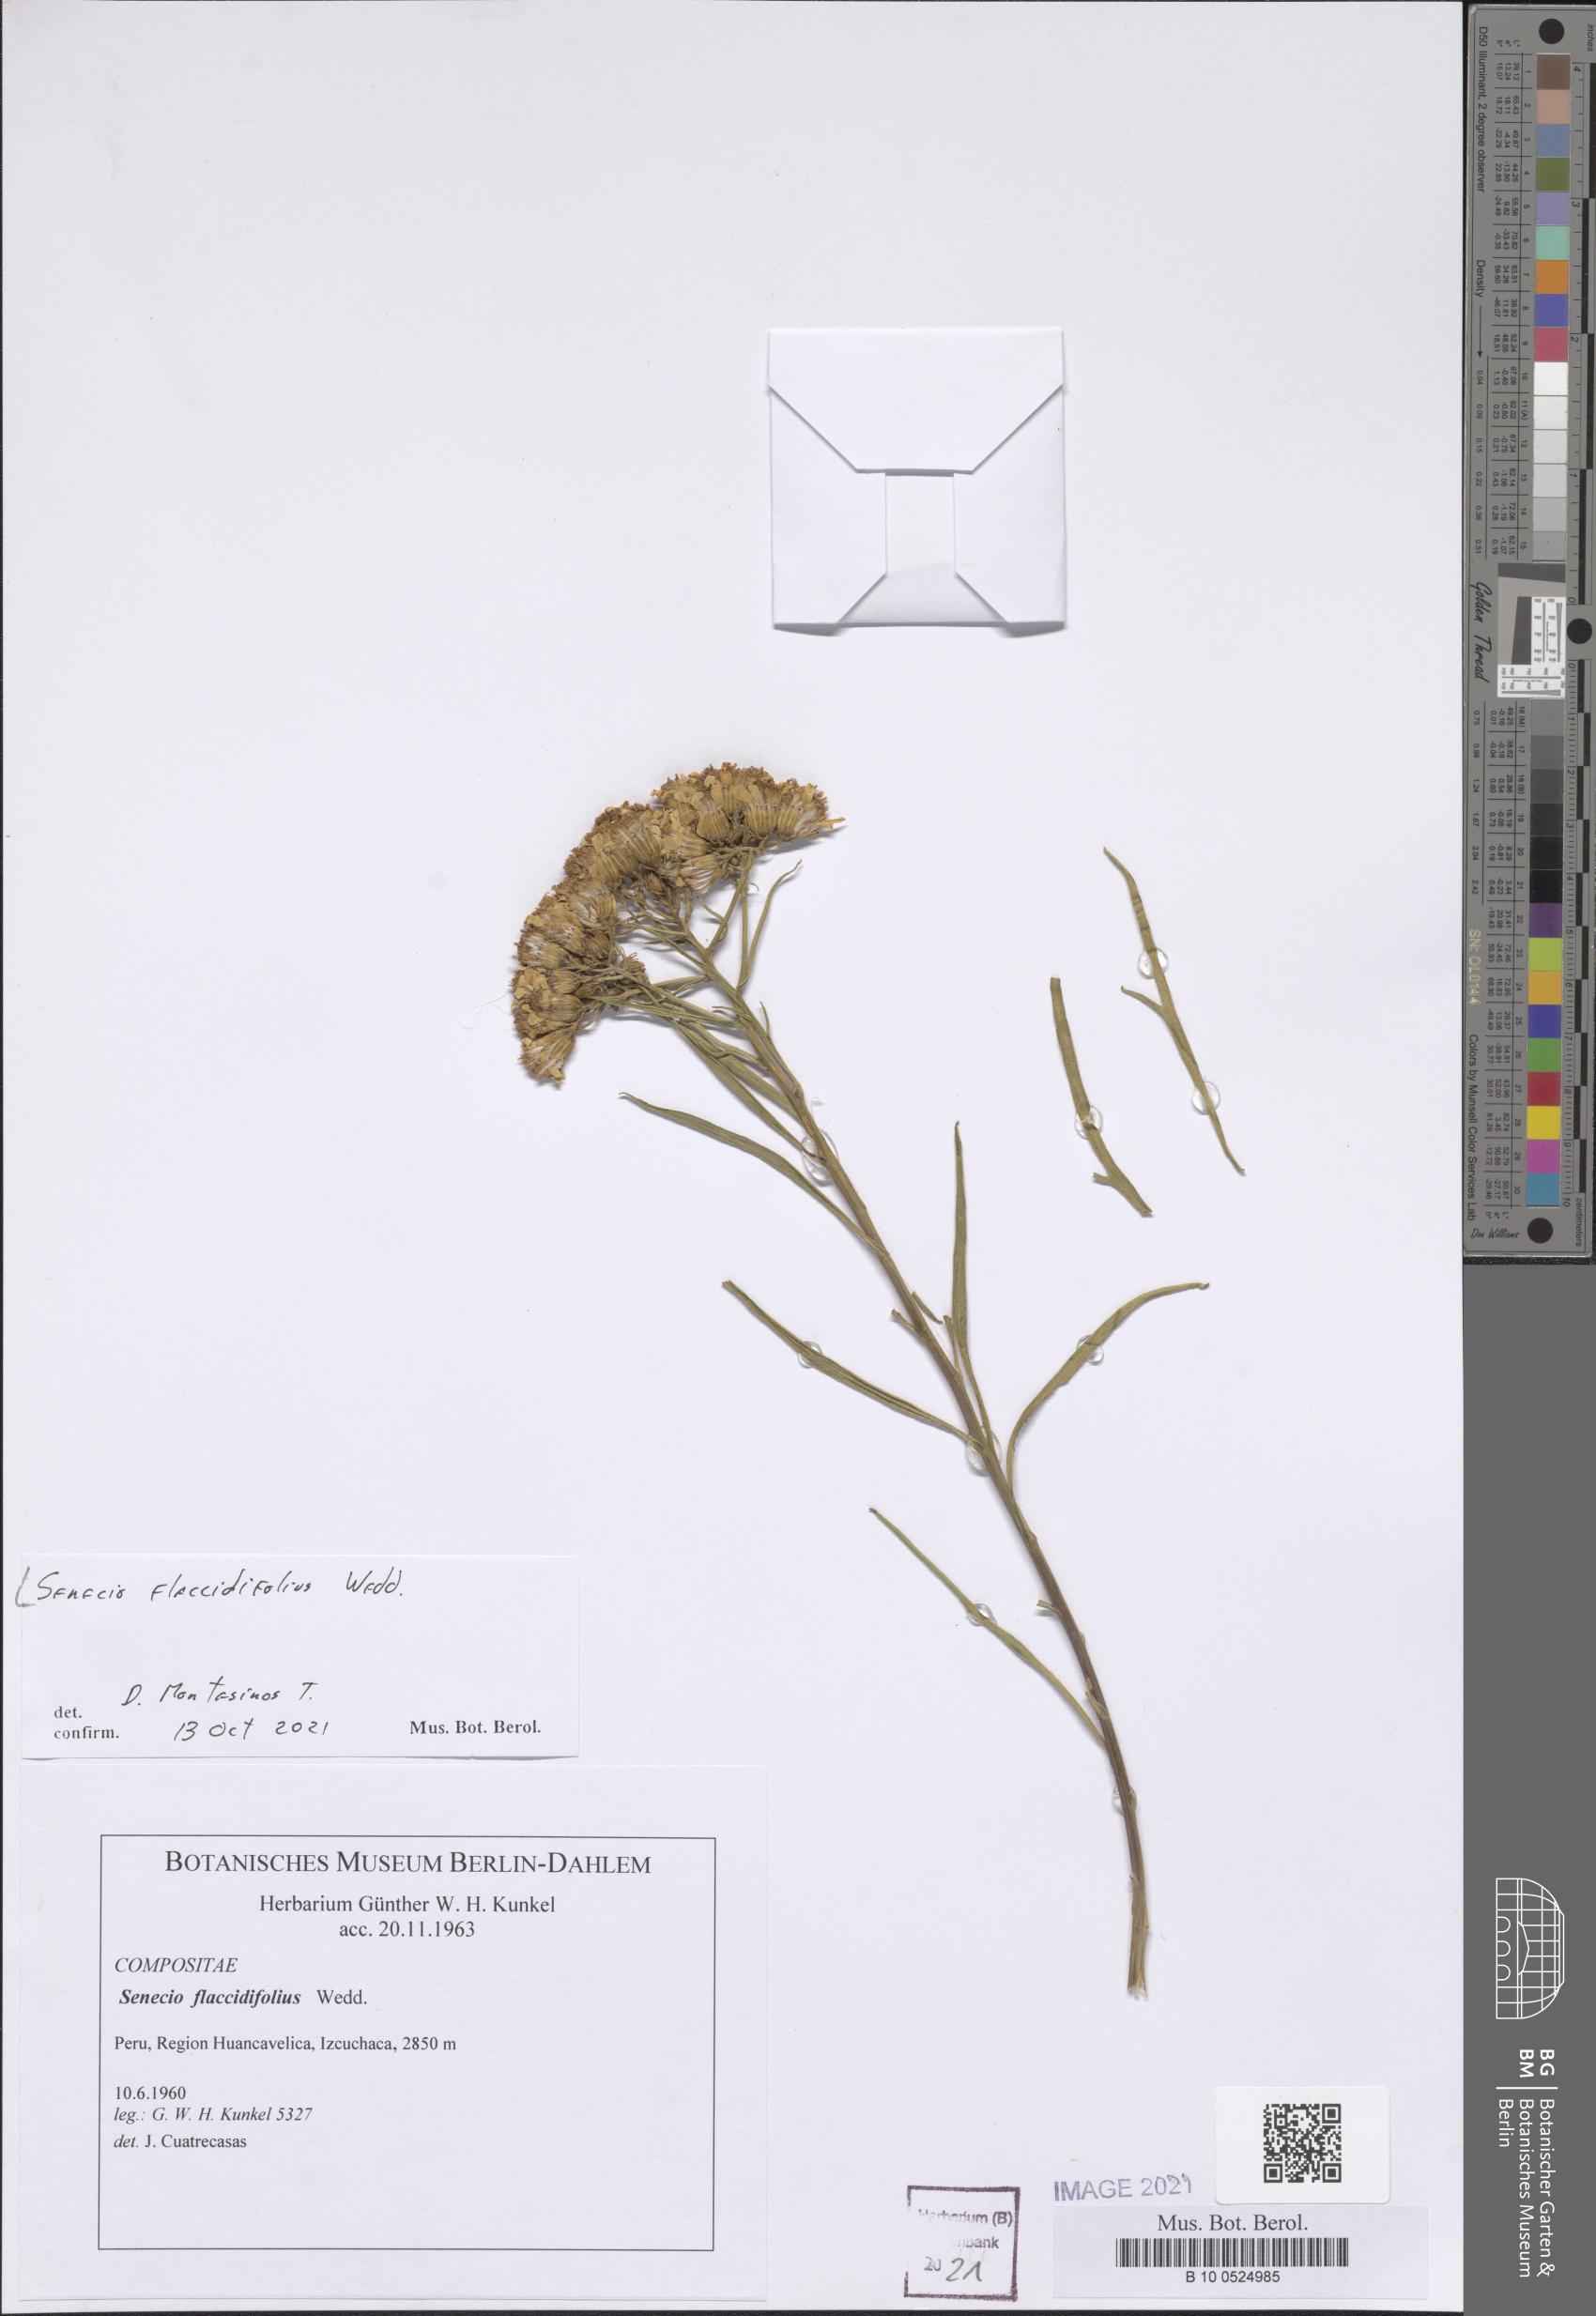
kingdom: Plantae
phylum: Tracheophyta
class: Magnoliopsida
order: Asterales
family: Asteraceae
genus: Senecio
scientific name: Senecio flaccidifolius
